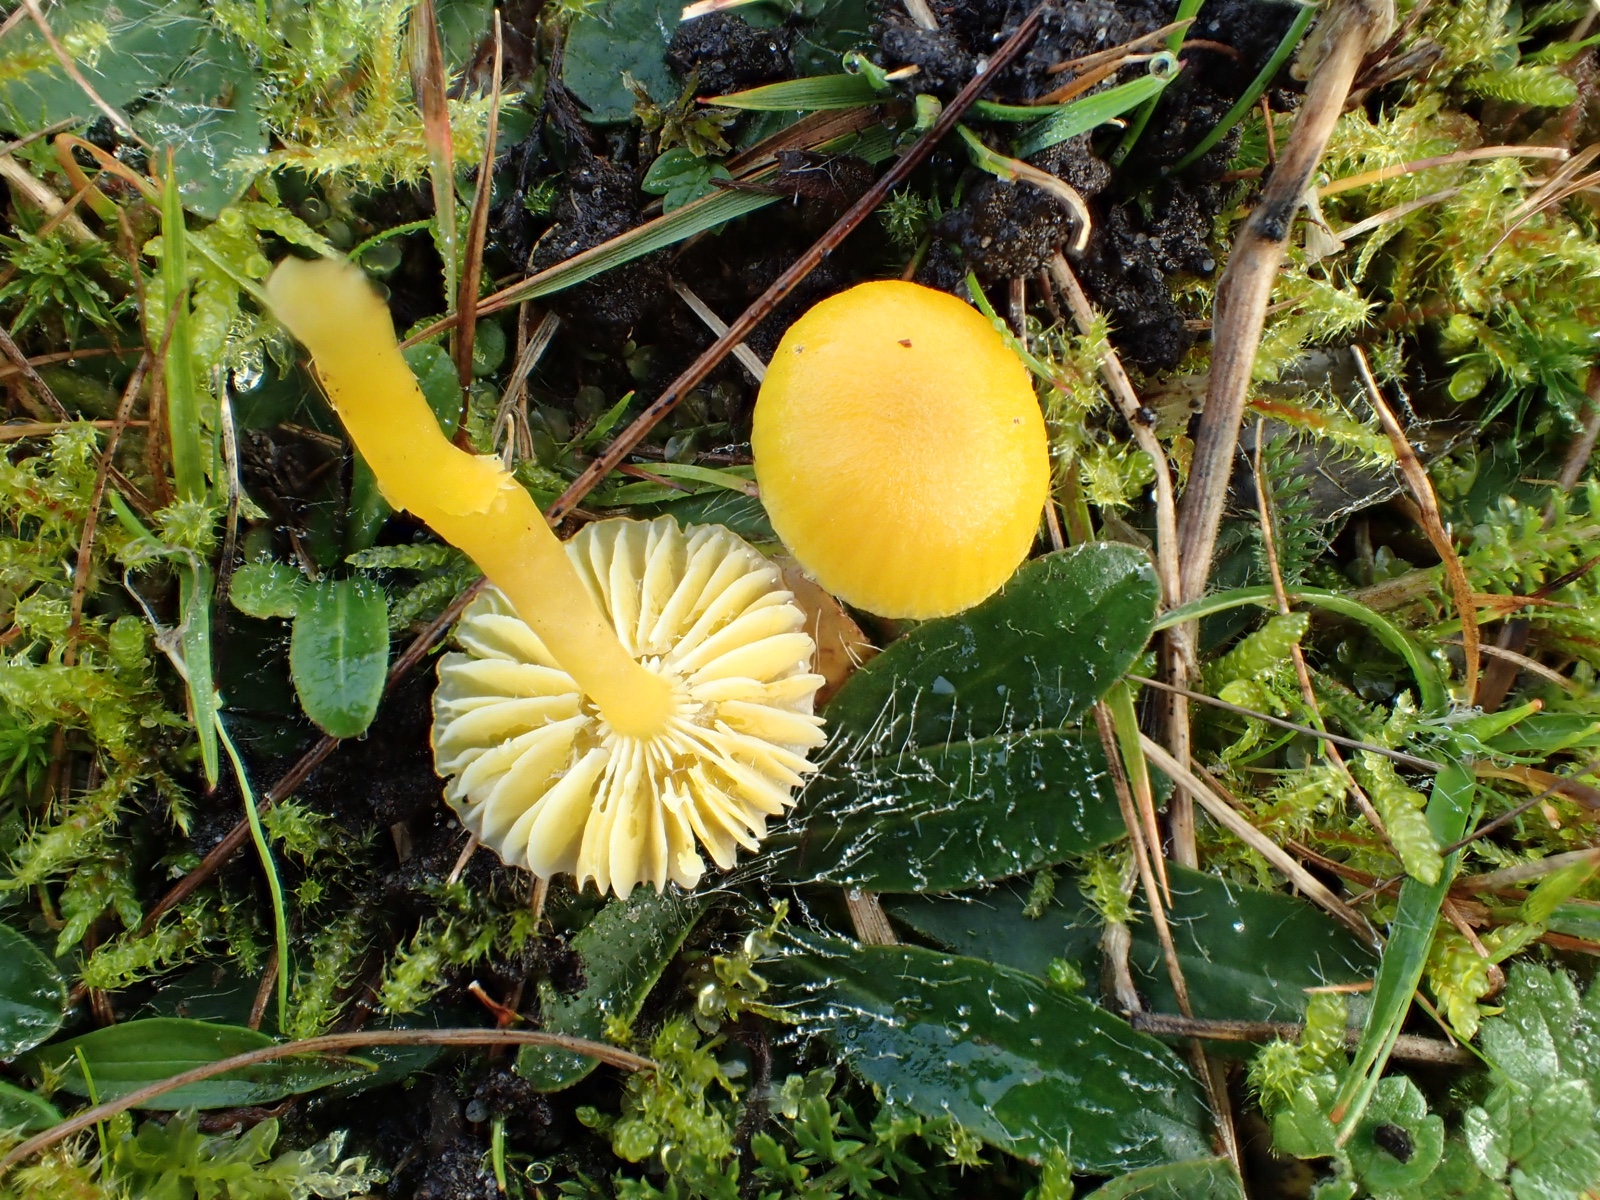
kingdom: Fungi
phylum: Basidiomycota
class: Agaricomycetes
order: Agaricales
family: Hygrophoraceae
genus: Hygrocybe
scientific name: Hygrocybe ceracea
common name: voksgul vokshat
